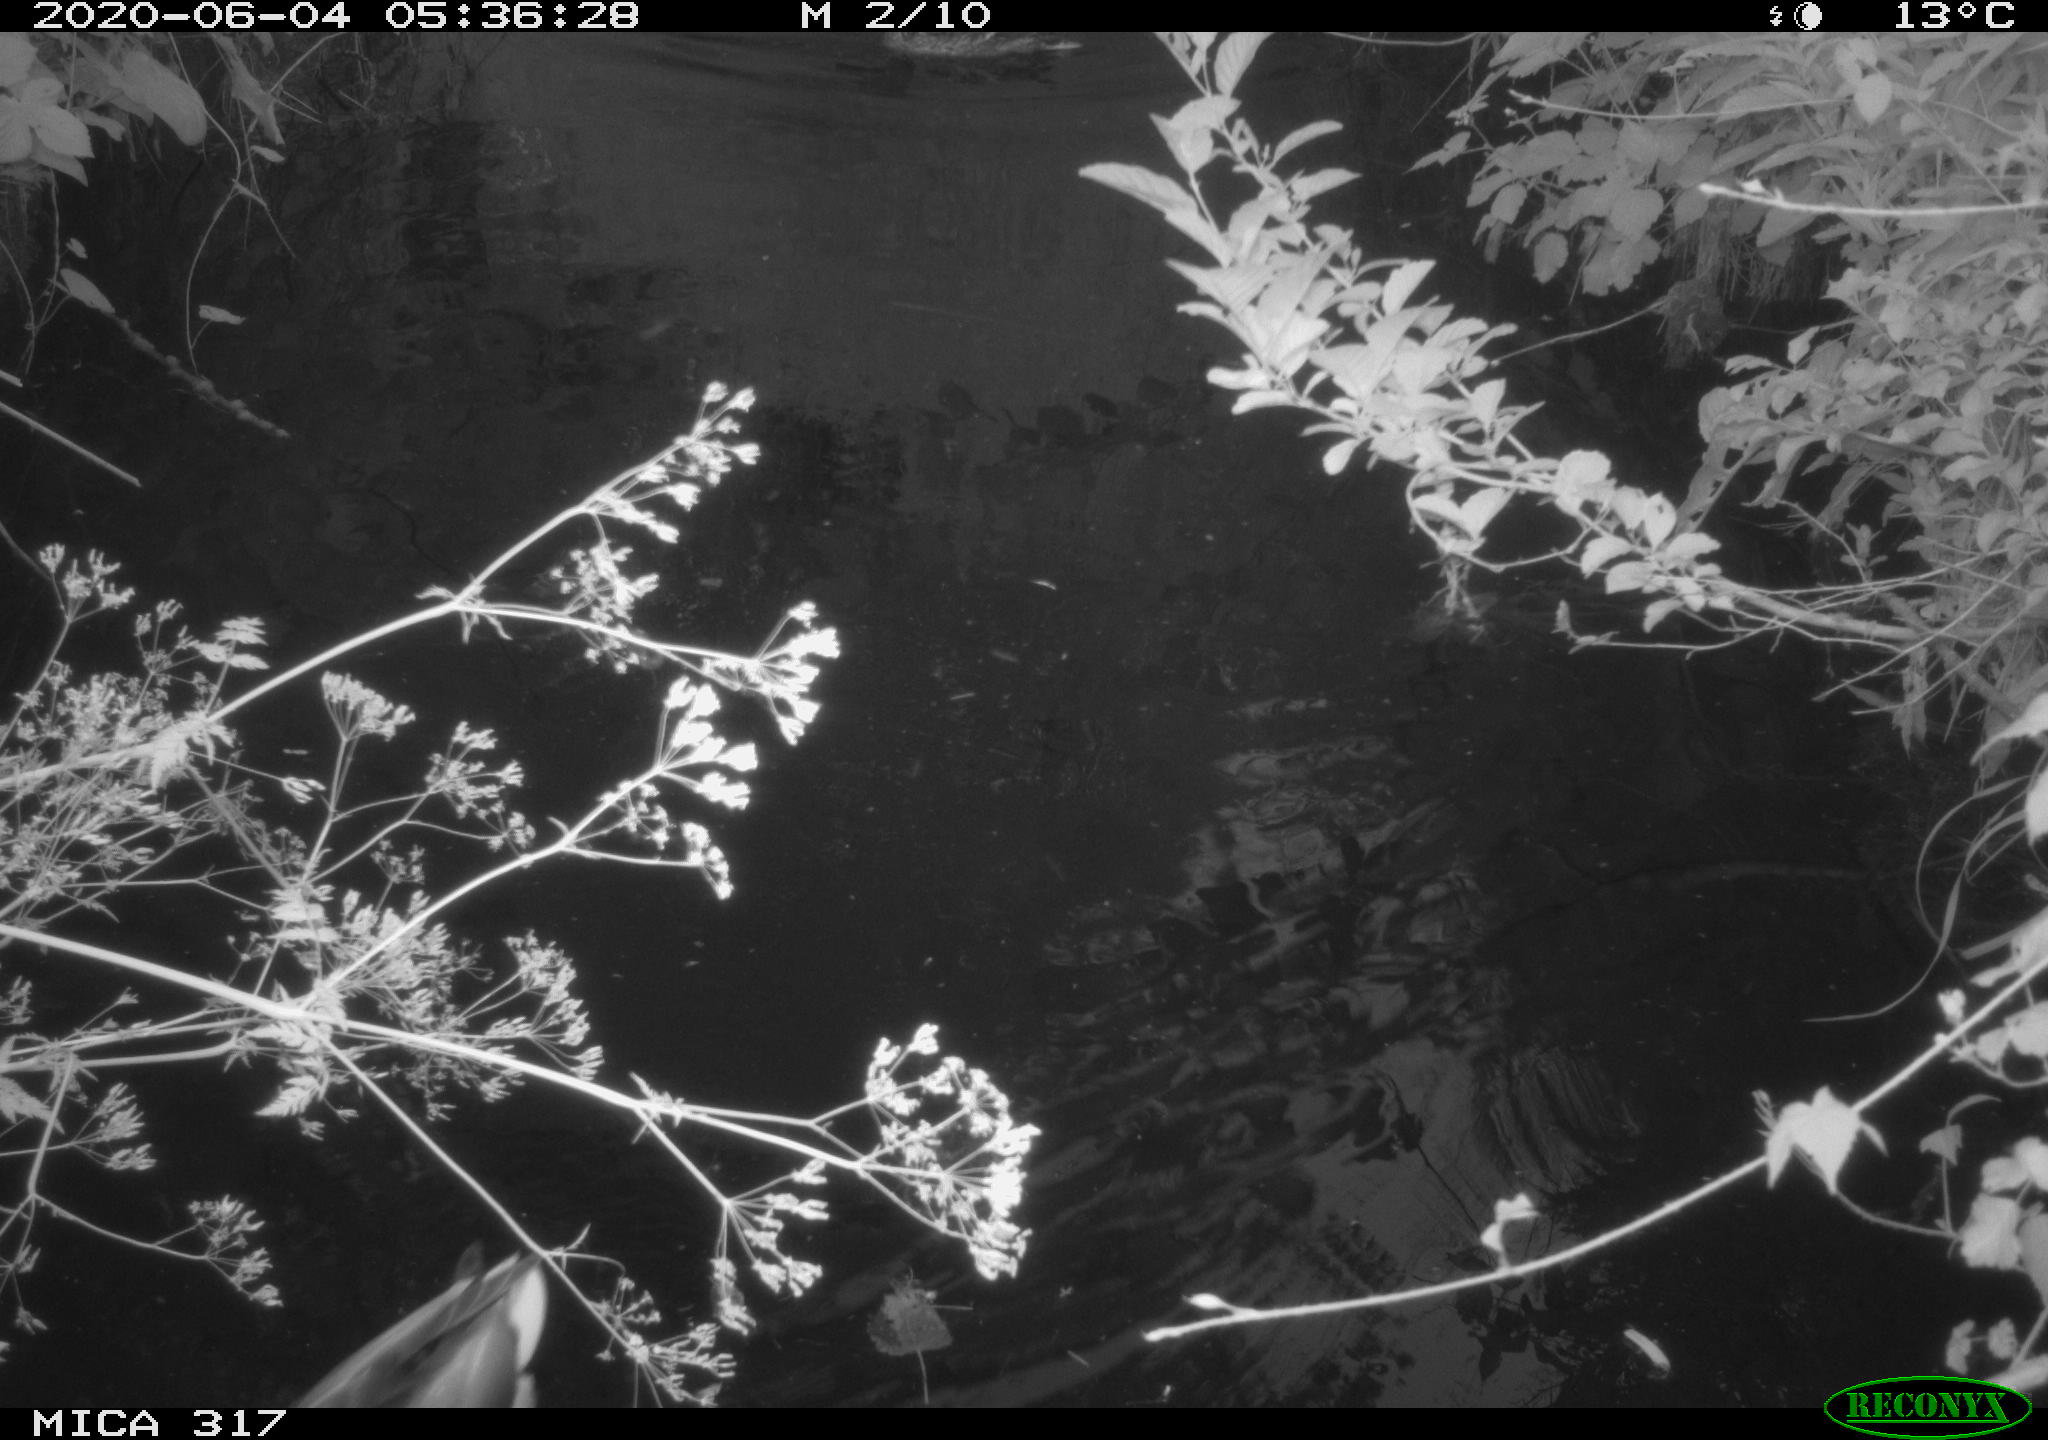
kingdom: Animalia
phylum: Chordata
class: Aves
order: Anseriformes
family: Anatidae
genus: Anas
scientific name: Anas platyrhynchos
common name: Mallard
